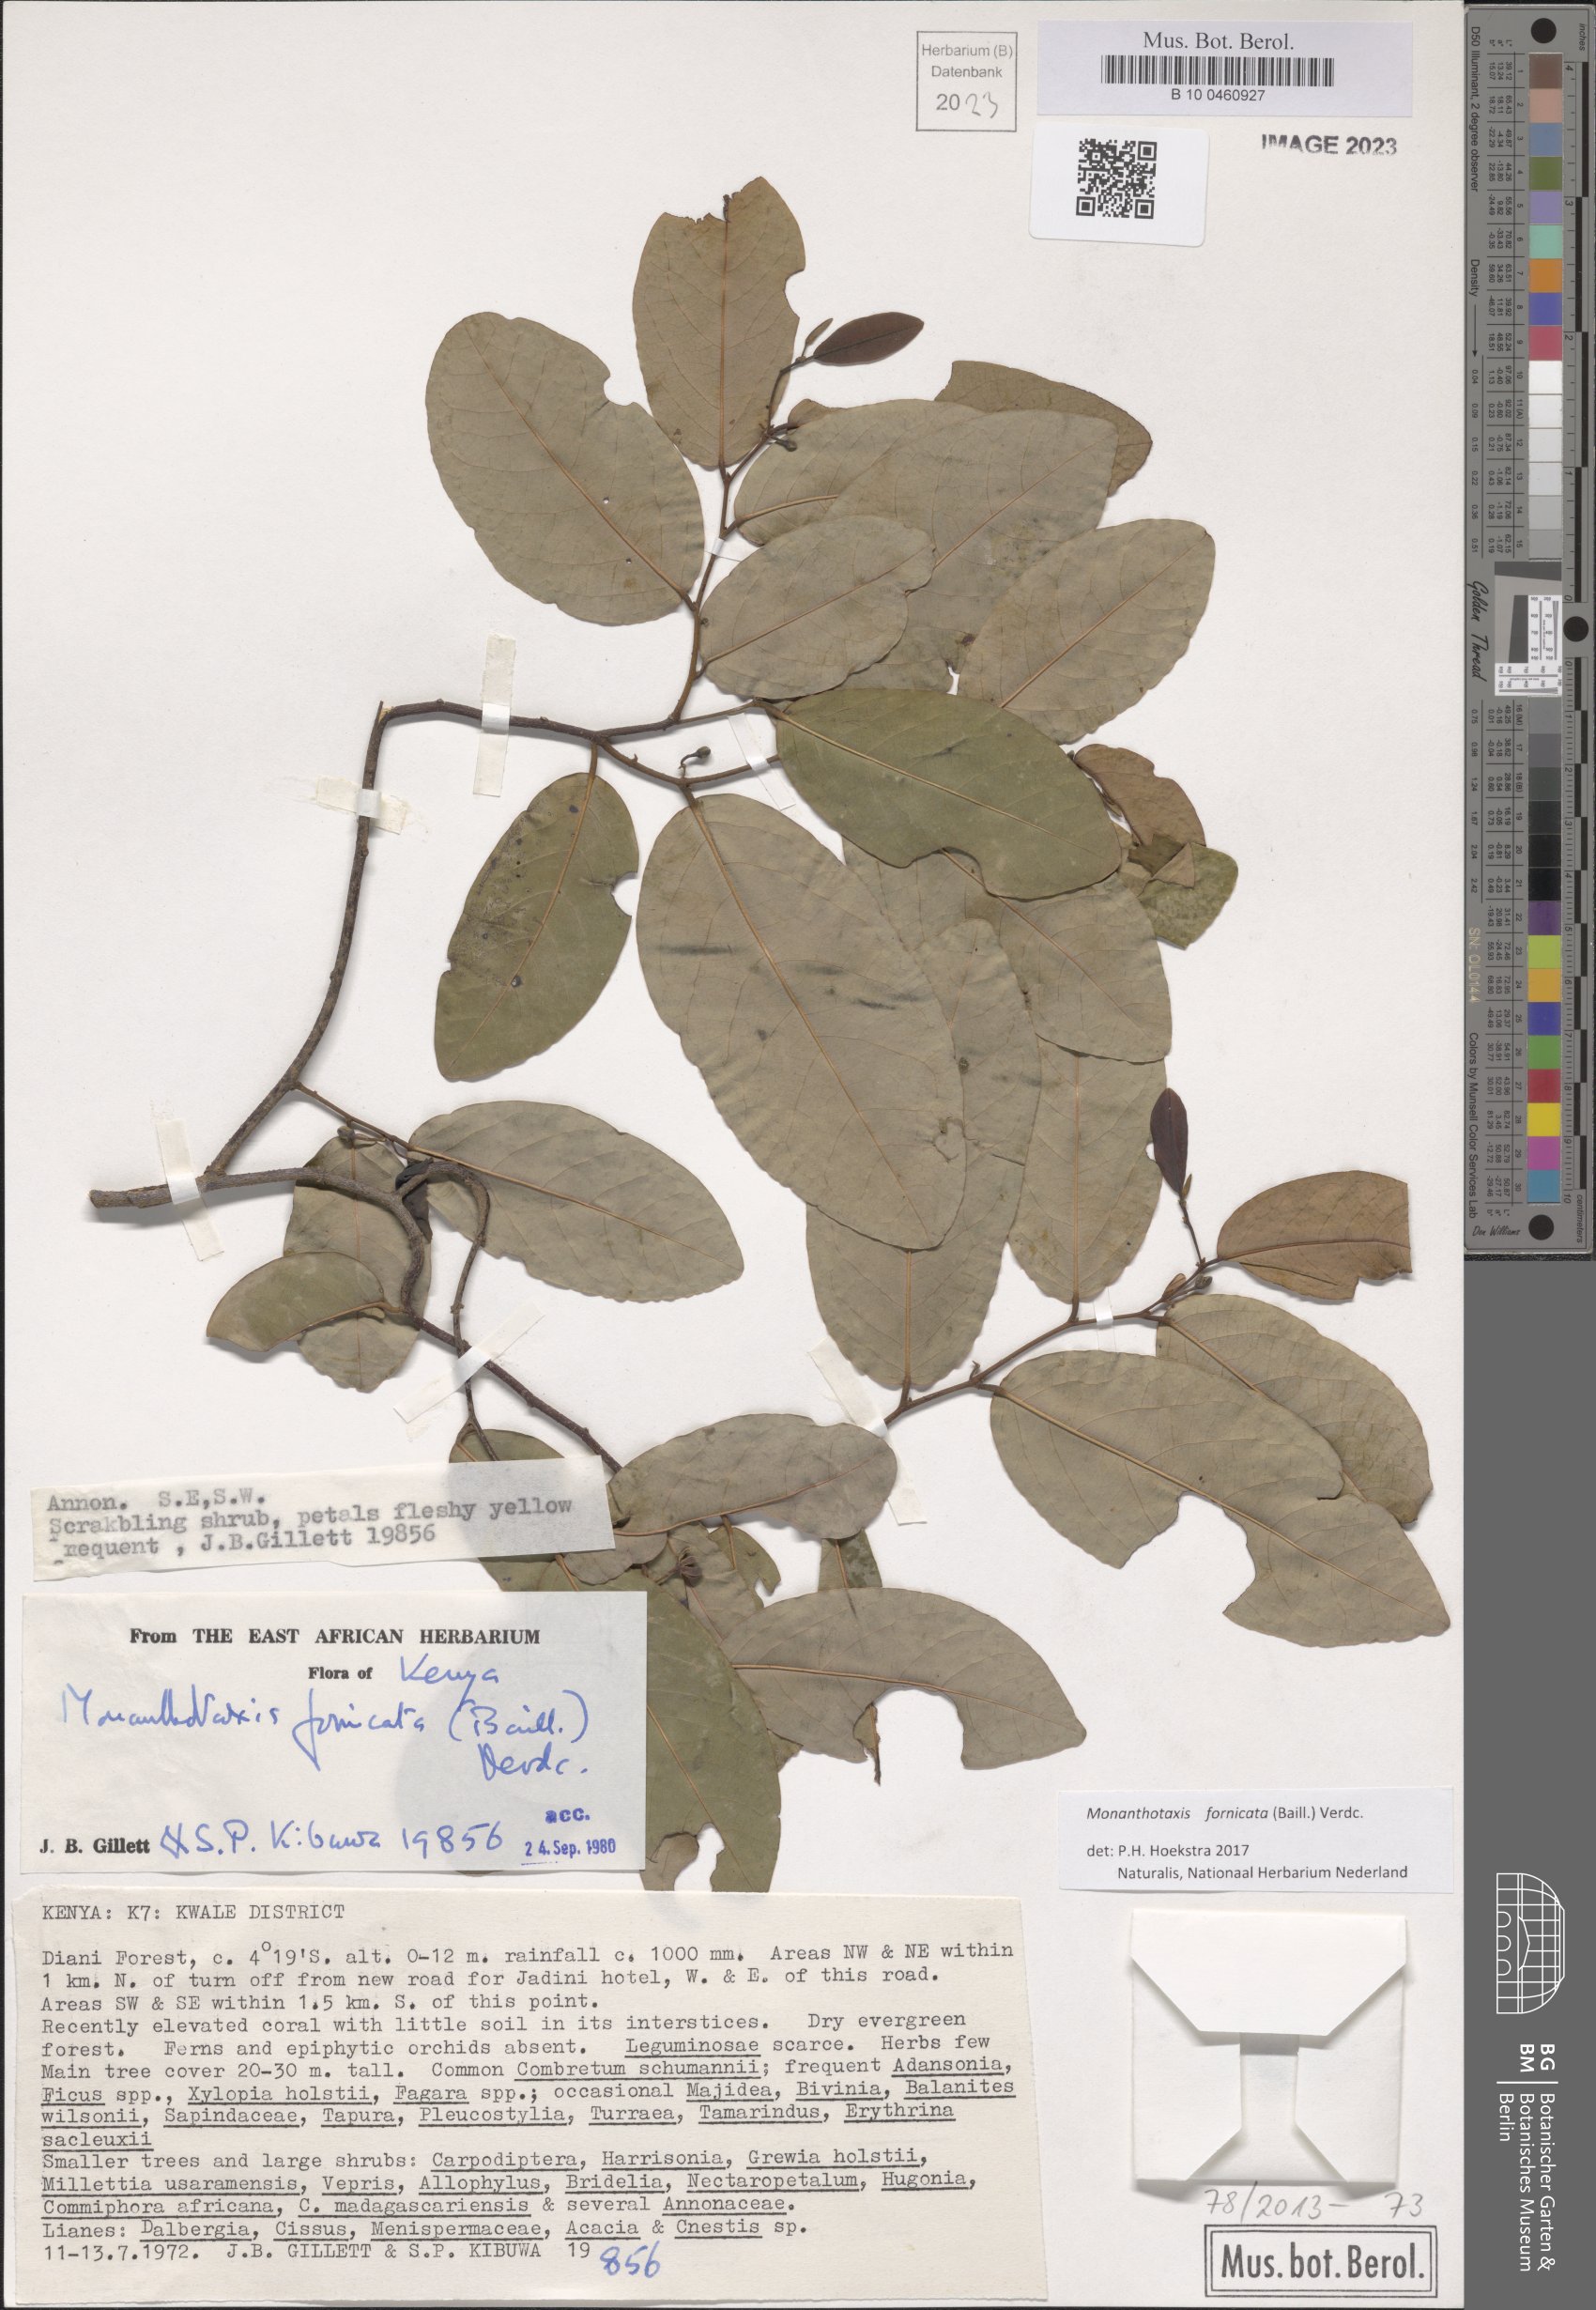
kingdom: Plantae
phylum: Tracheophyta
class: Magnoliopsida
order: Magnoliales
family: Annonaceae
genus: Monanthotaxis
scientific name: Monanthotaxis fornicata
